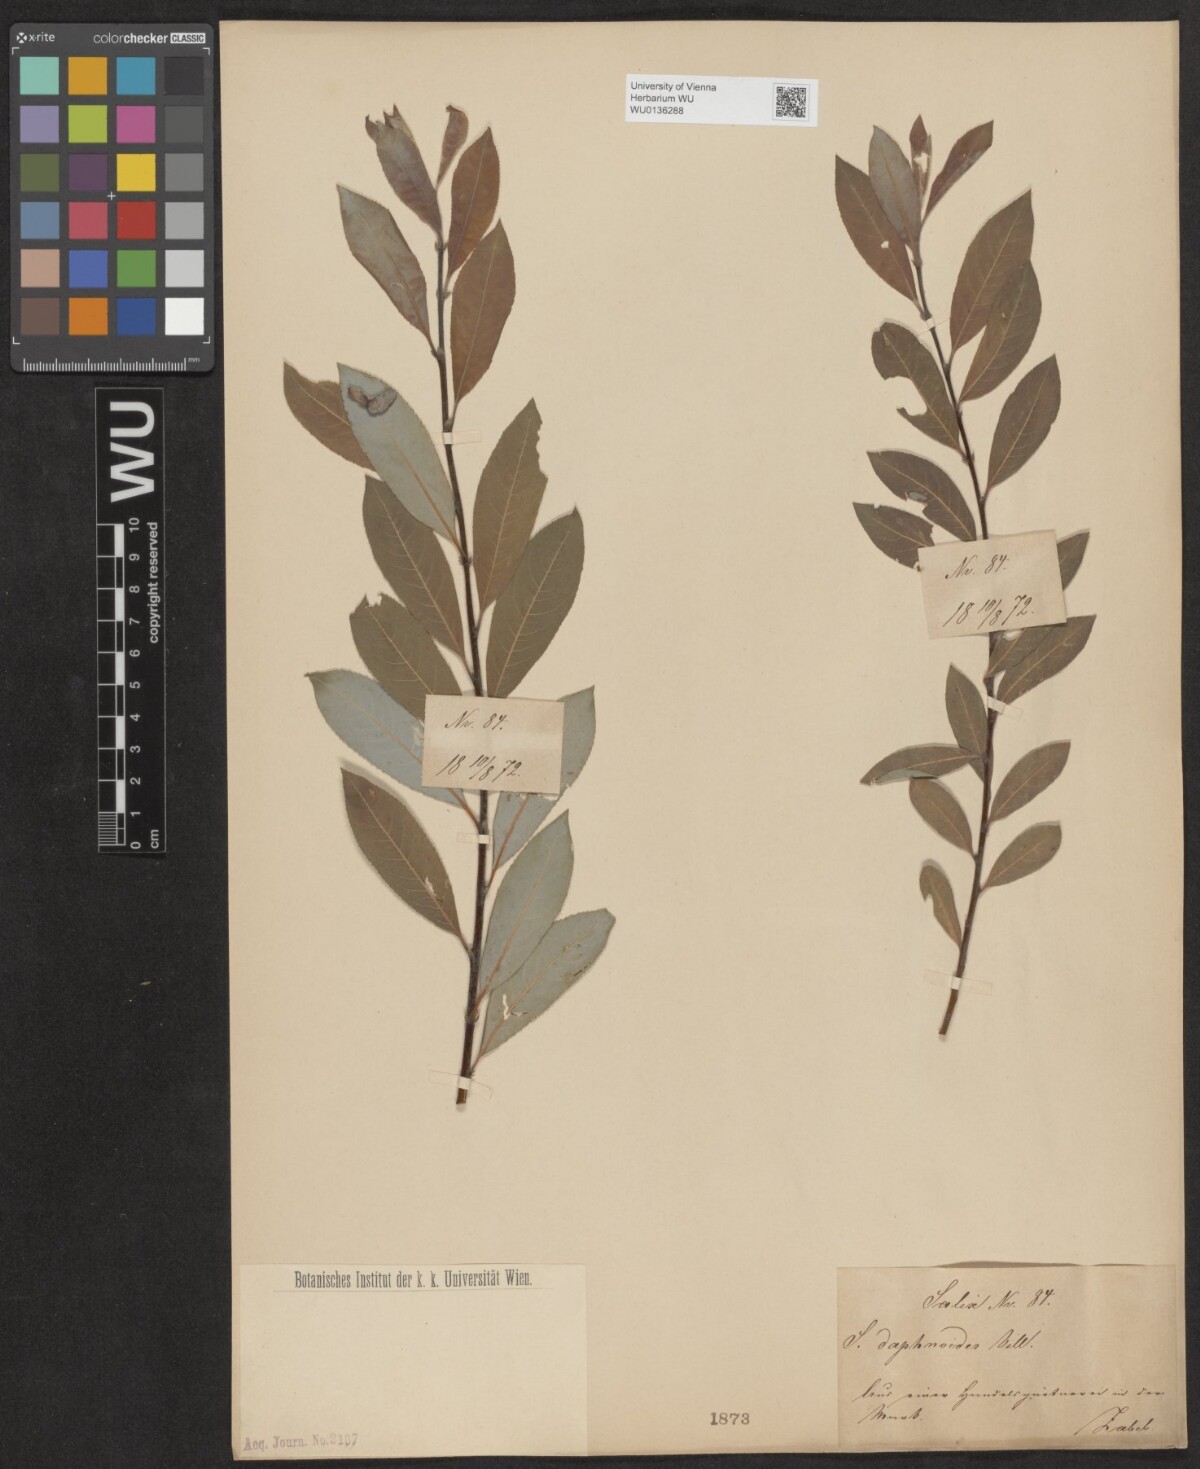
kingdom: Plantae
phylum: Tracheophyta
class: Magnoliopsida
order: Malpighiales
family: Salicaceae
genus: Salix
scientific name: Salix daphnoides
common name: European violet-willow
